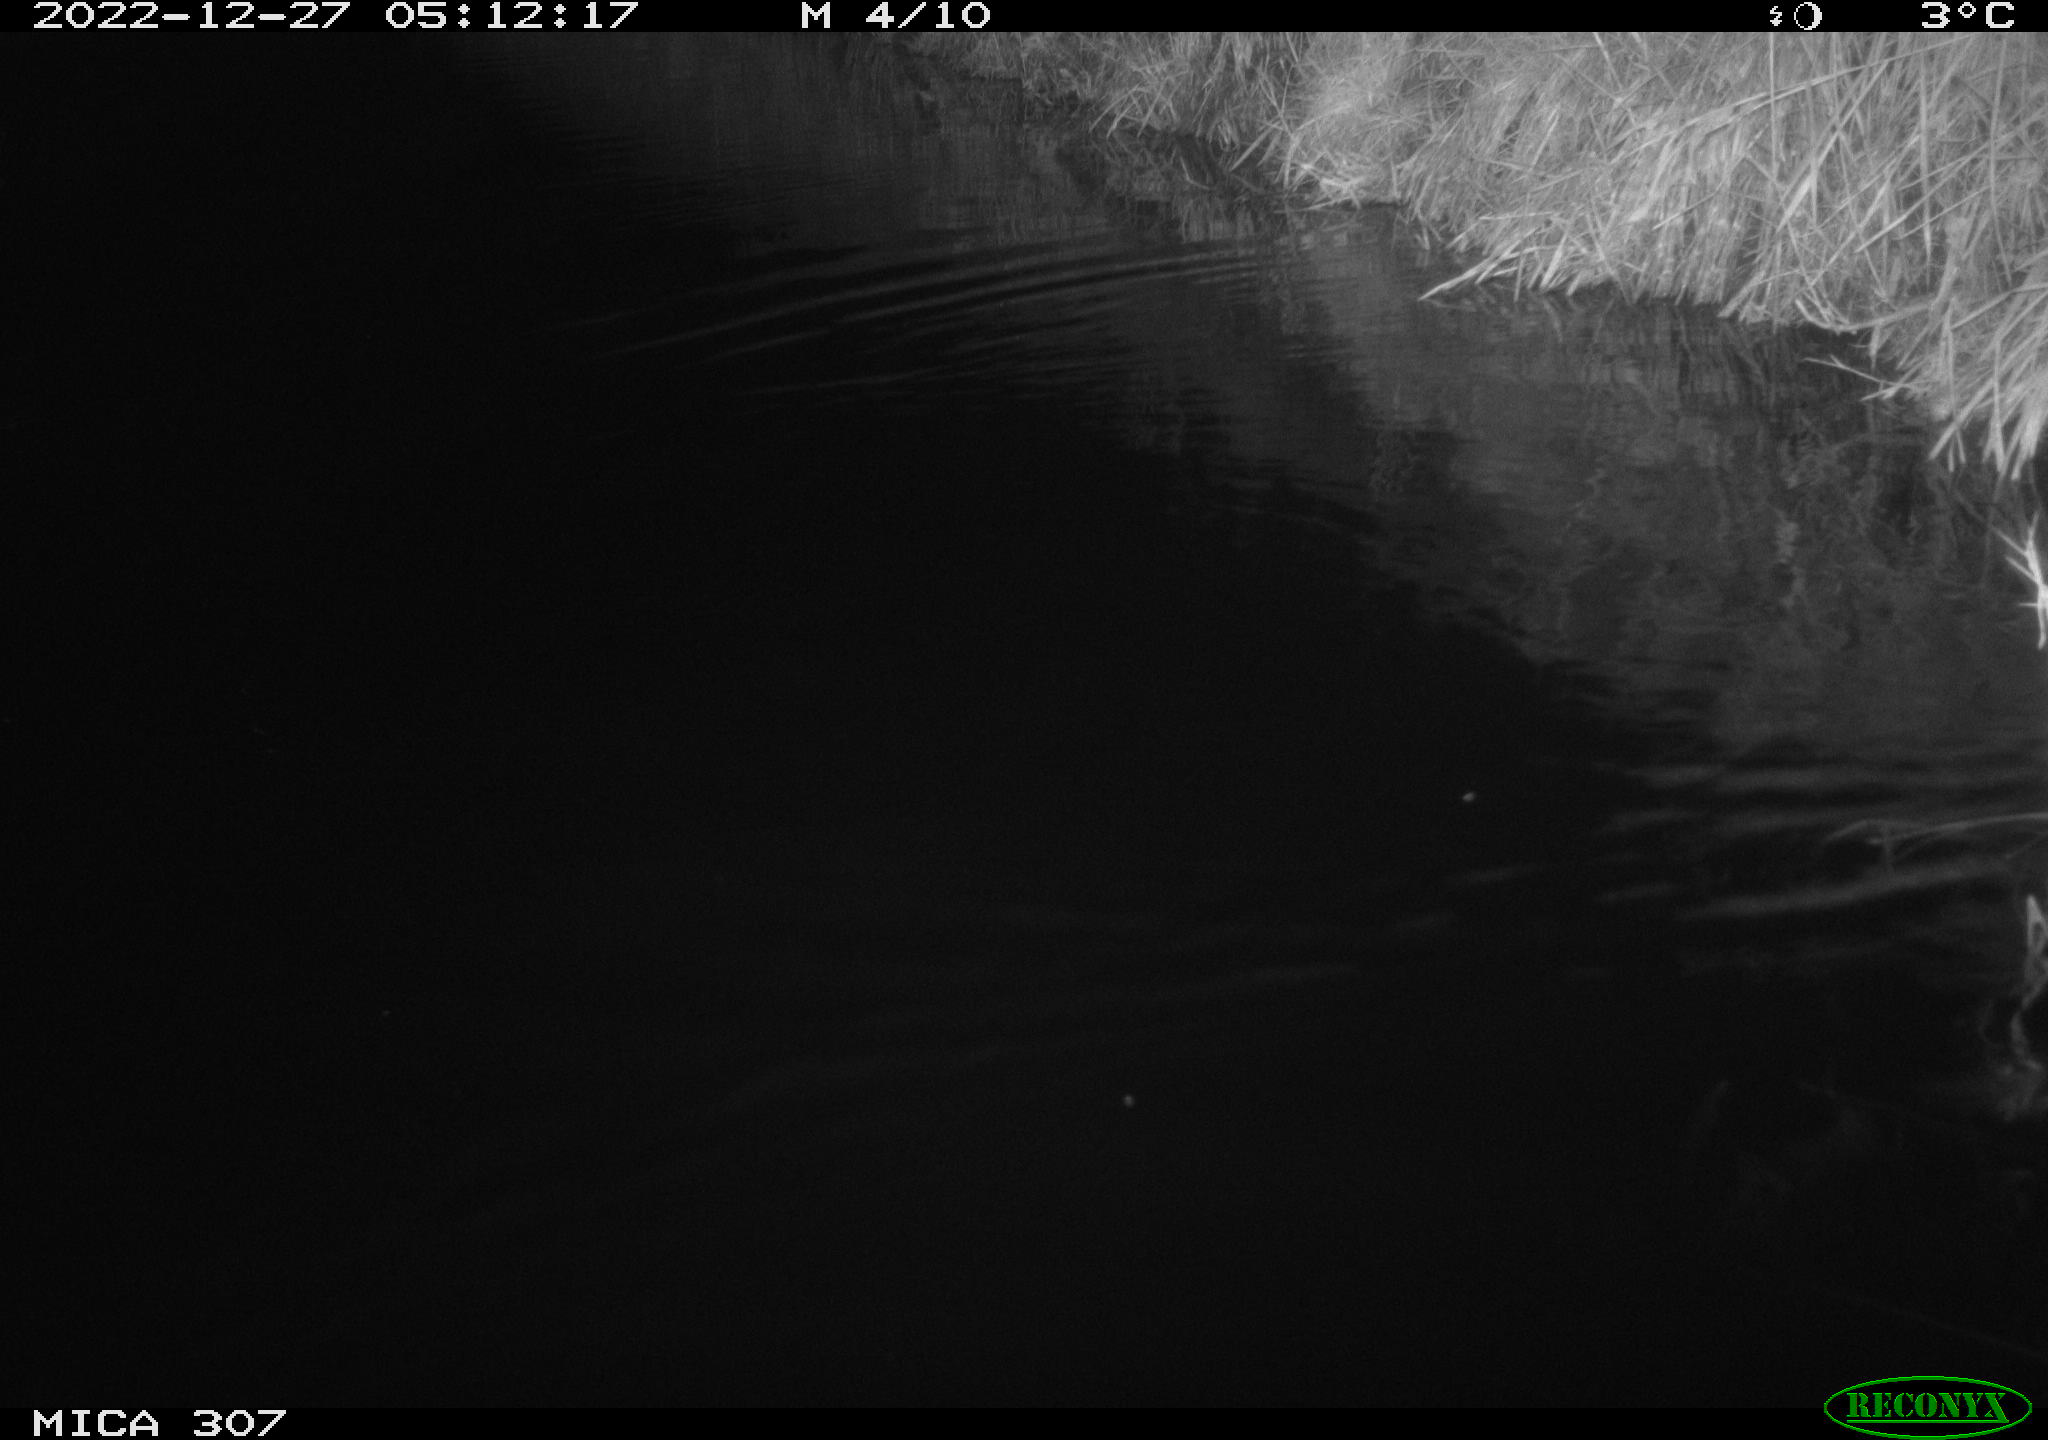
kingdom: Animalia
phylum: Chordata
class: Mammalia
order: Rodentia
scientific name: Rodentia
